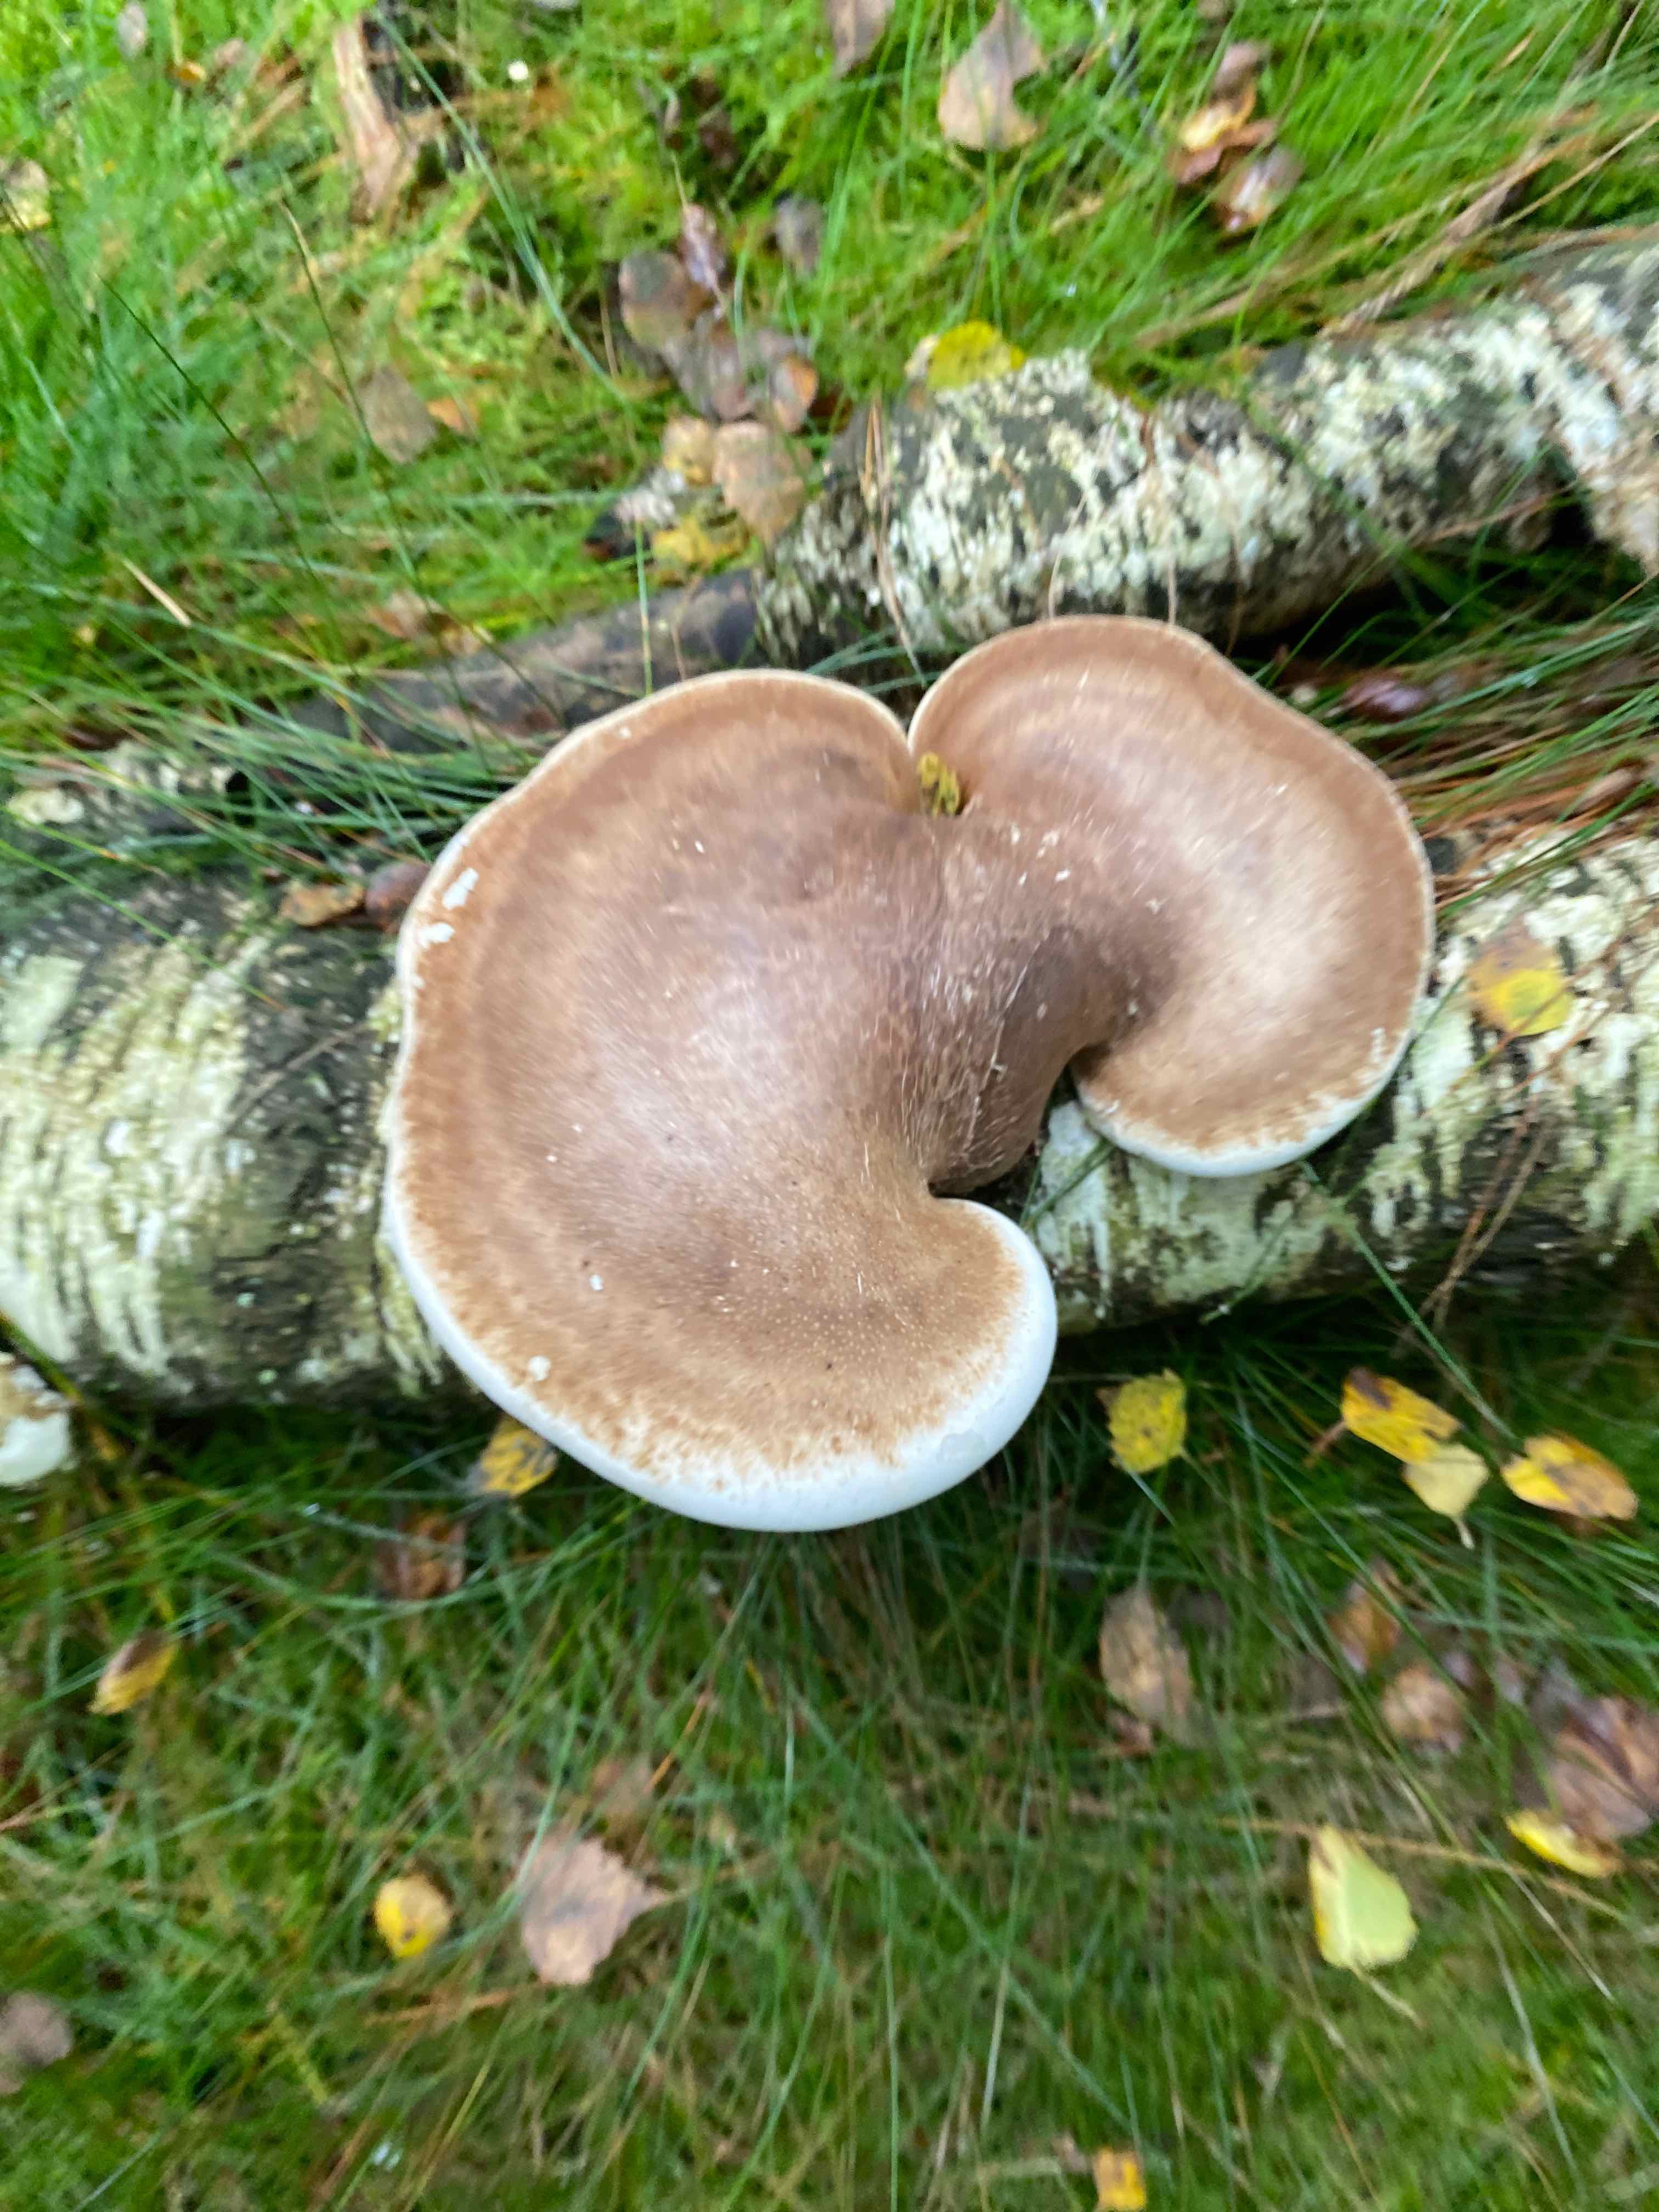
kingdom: Fungi
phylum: Basidiomycota
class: Agaricomycetes
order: Polyporales
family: Fomitopsidaceae
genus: Fomitopsis
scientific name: Fomitopsis betulina
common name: birkeporesvamp
